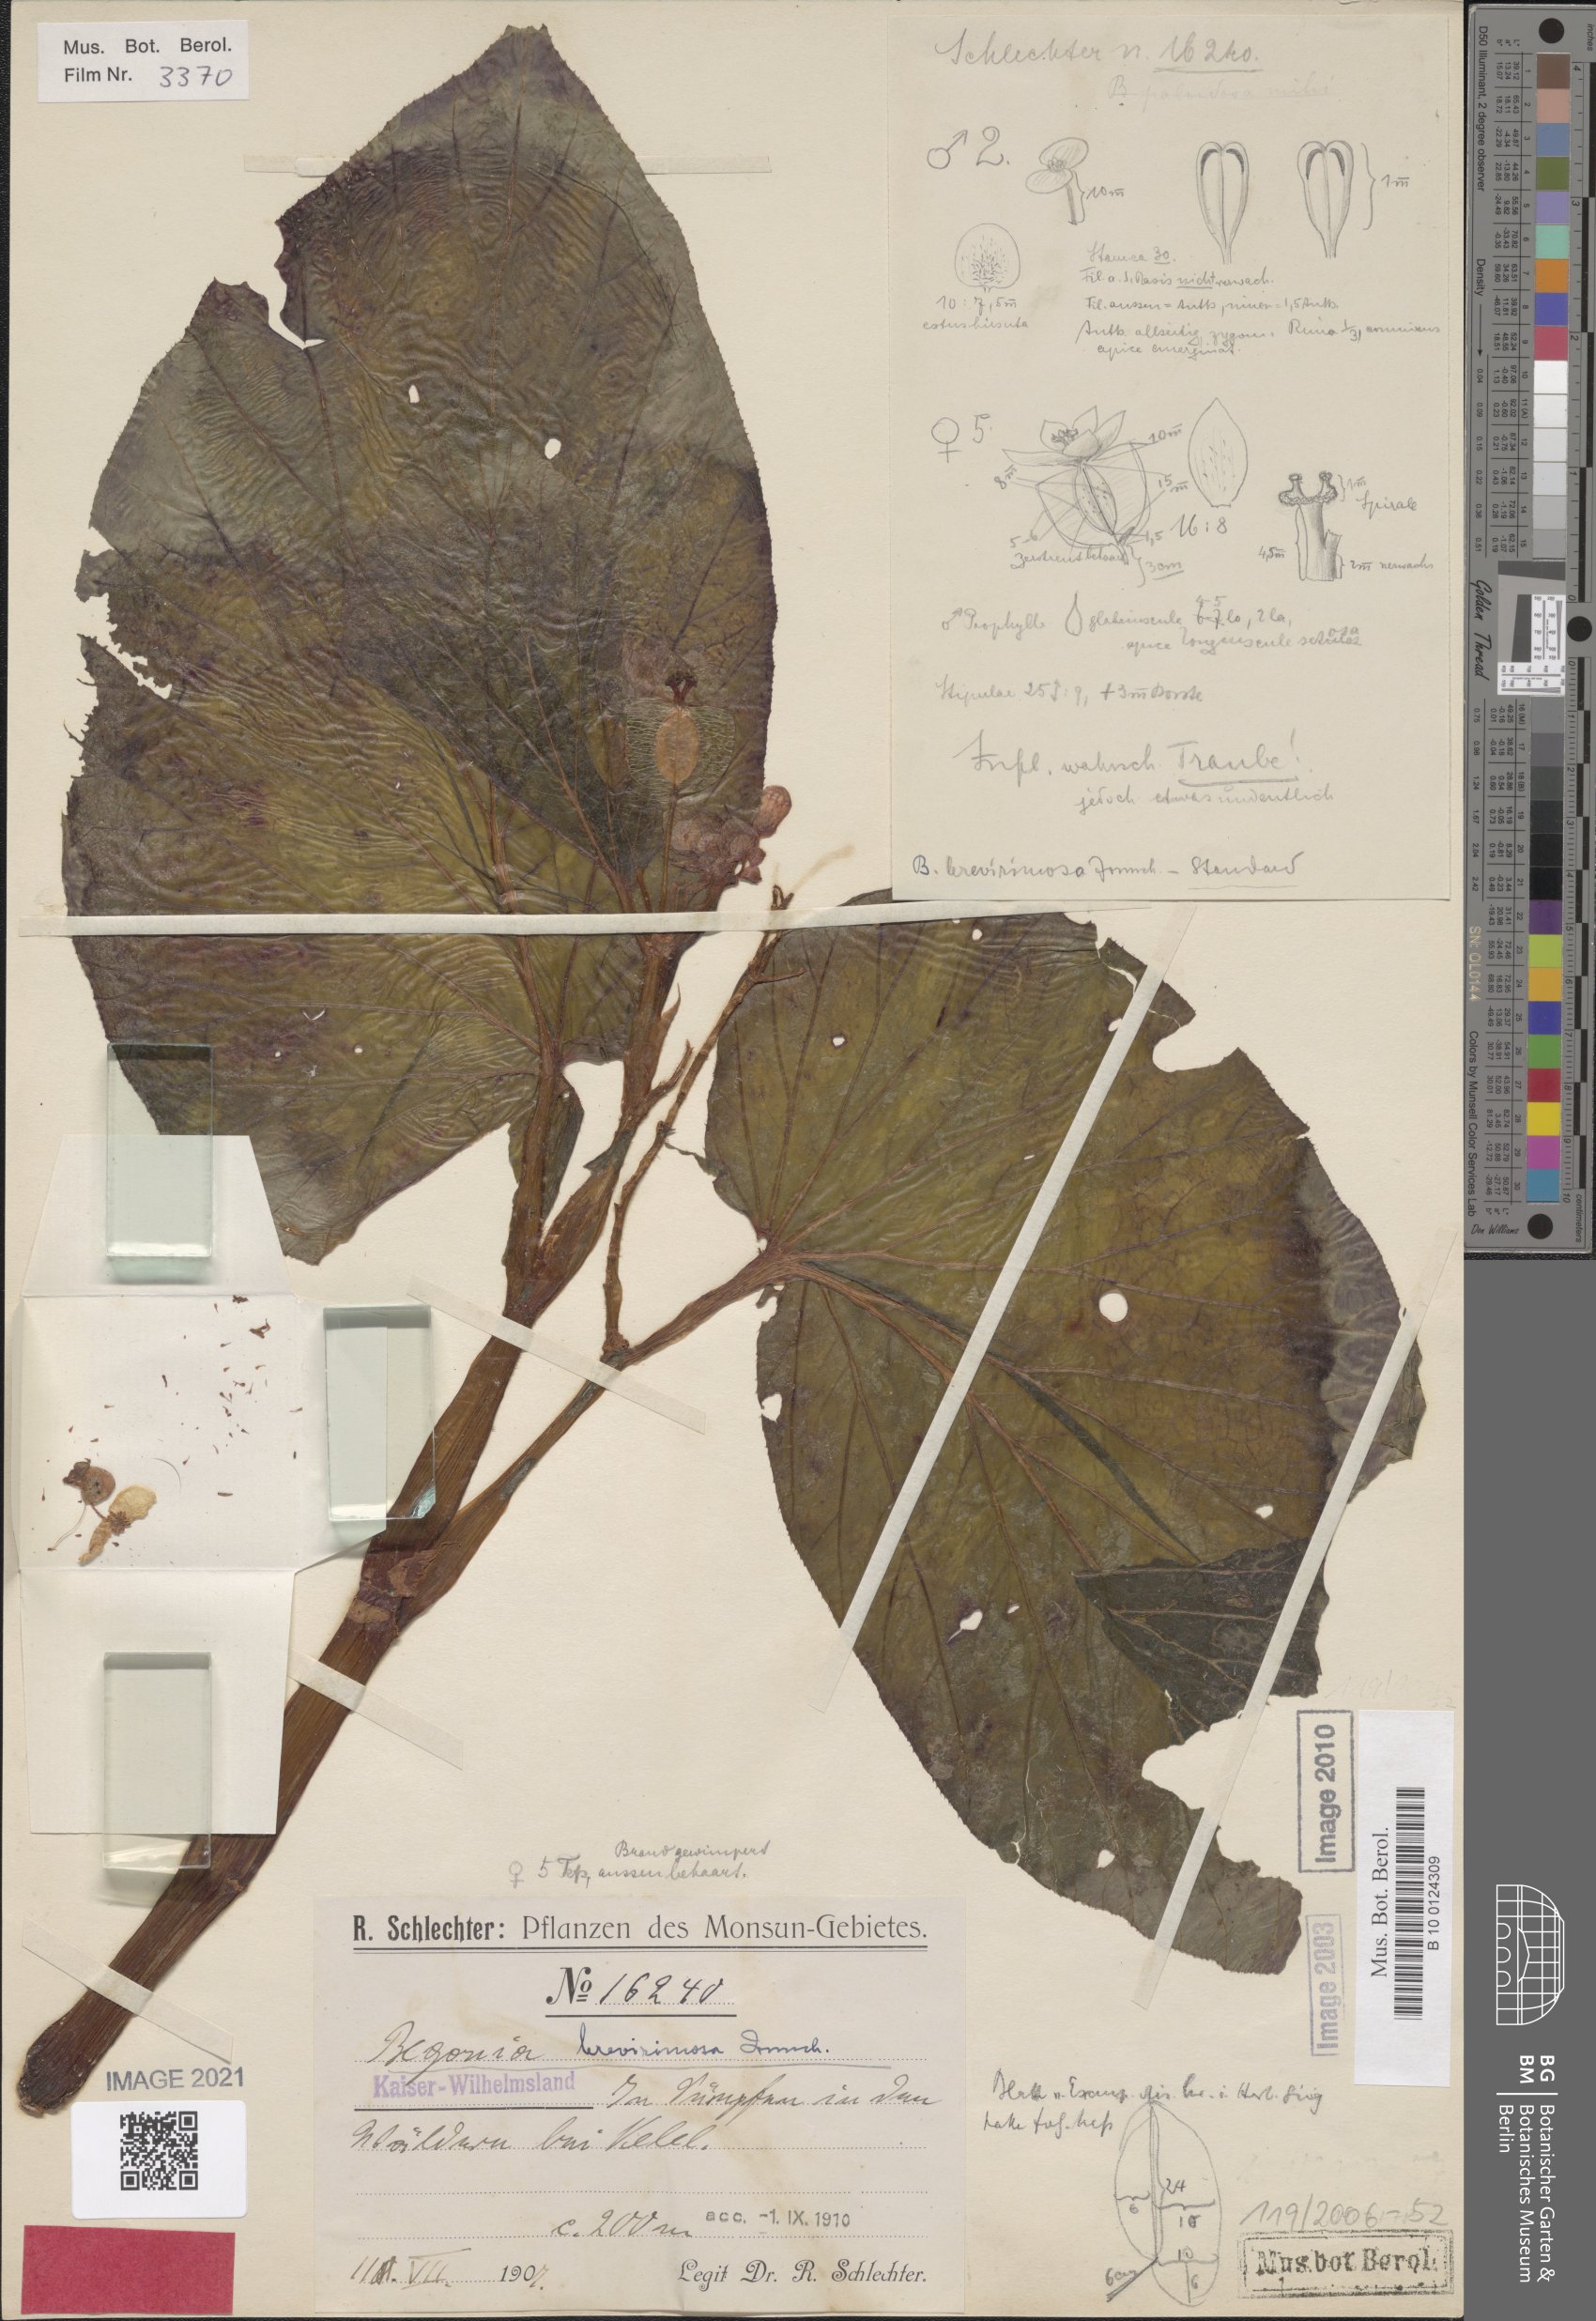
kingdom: Plantae
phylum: Tracheophyta
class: Magnoliopsida
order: Cucurbitales
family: Begoniaceae
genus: Begonia
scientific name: Begonia brevirimosa
